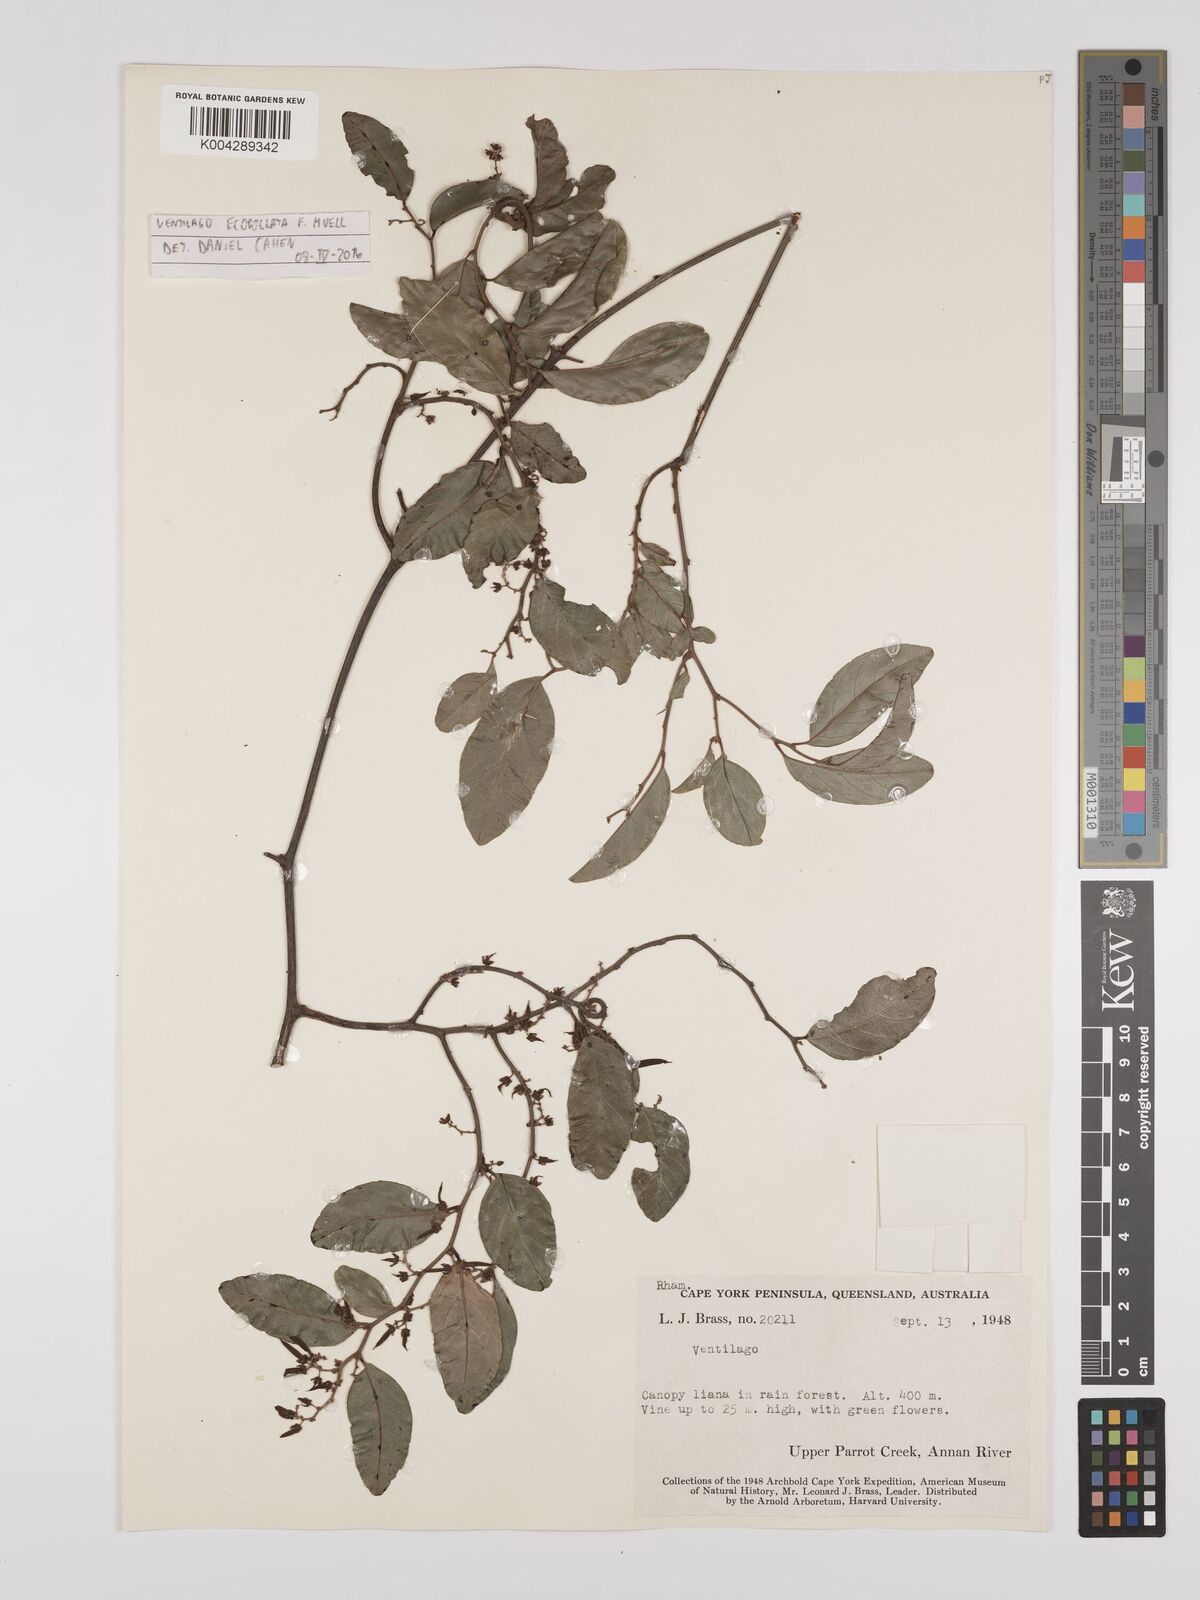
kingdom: Plantae
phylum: Tracheophyta
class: Magnoliopsida
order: Rosales
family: Rhamnaceae
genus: Ventilago
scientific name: Ventilago
